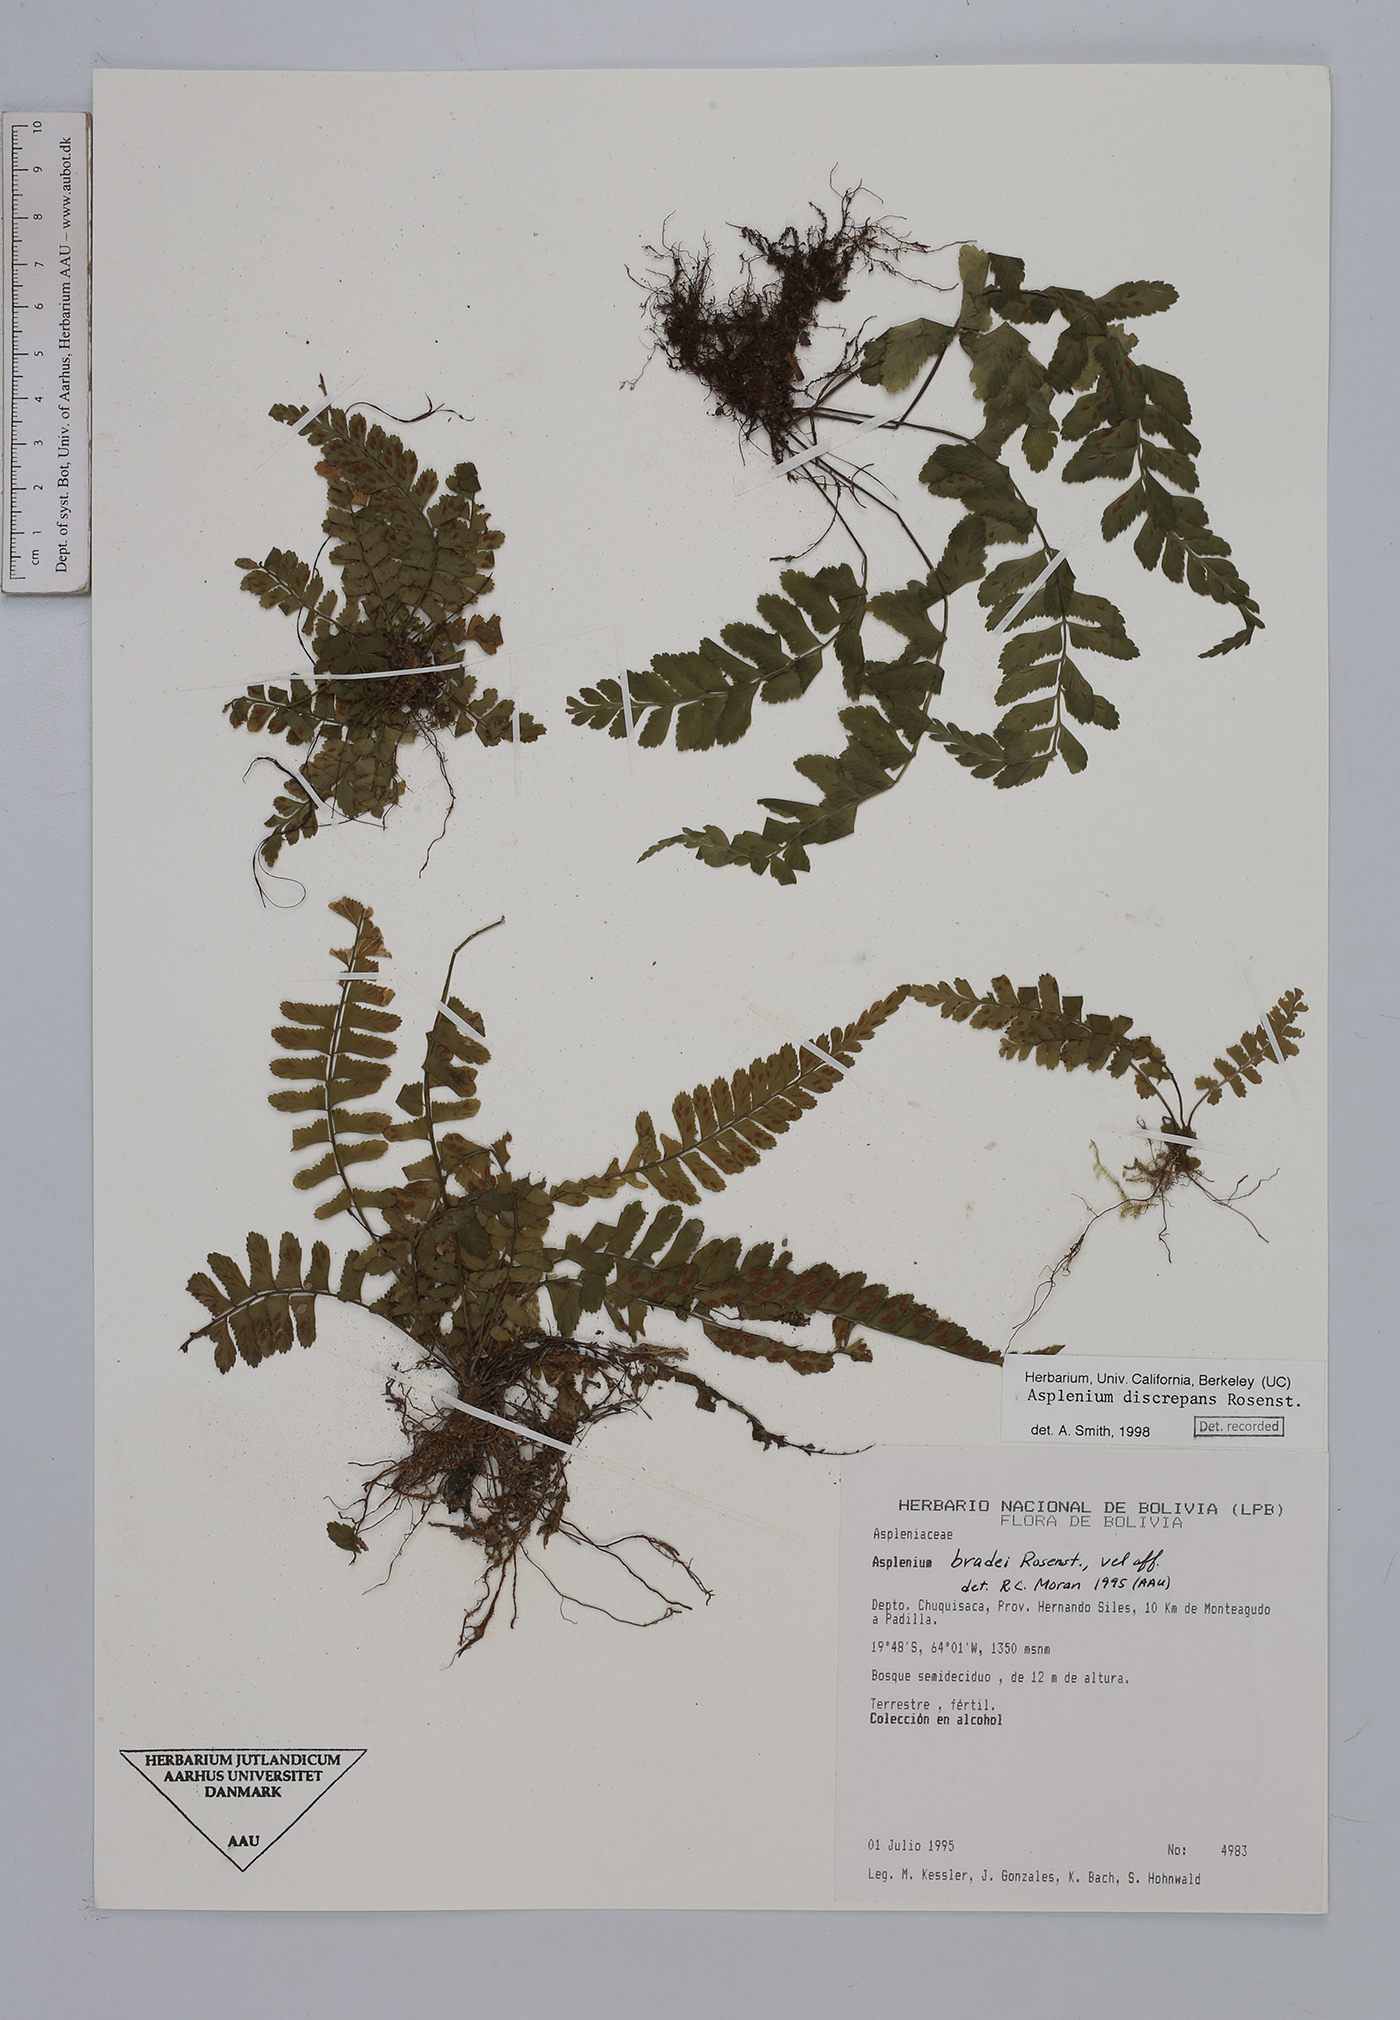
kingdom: Plantae
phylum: Tracheophyta
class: Polypodiopsida
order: Polypodiales
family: Aspleniaceae
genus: Asplenium
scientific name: Asplenium discrepans
